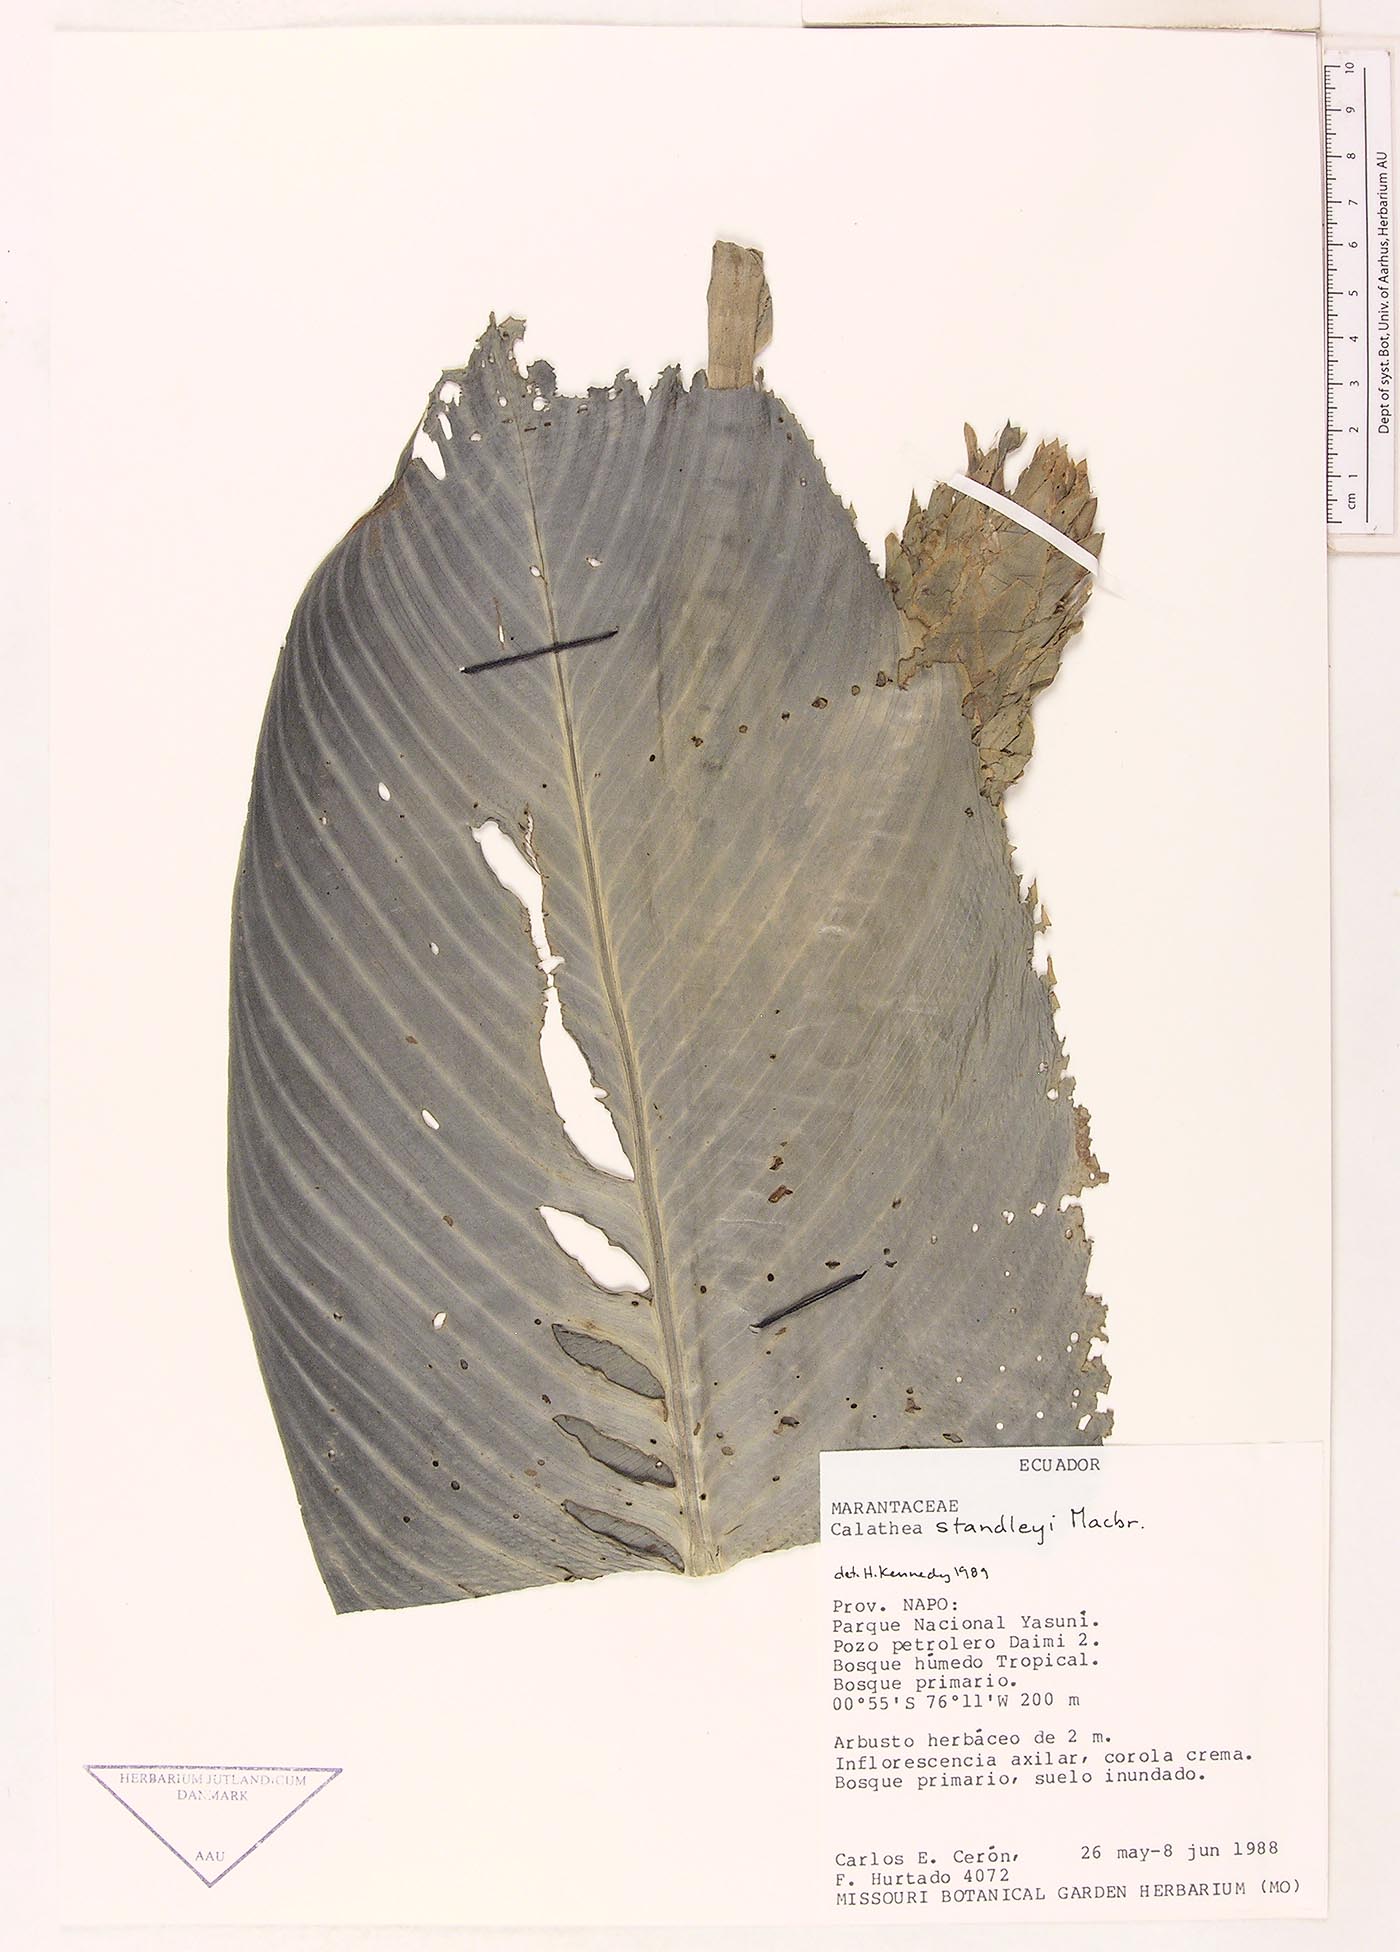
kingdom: Plantae
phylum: Tracheophyta
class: Liliopsida
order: Zingiberales
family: Marantaceae
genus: Goeppertia
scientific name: Goeppertia standleyi
